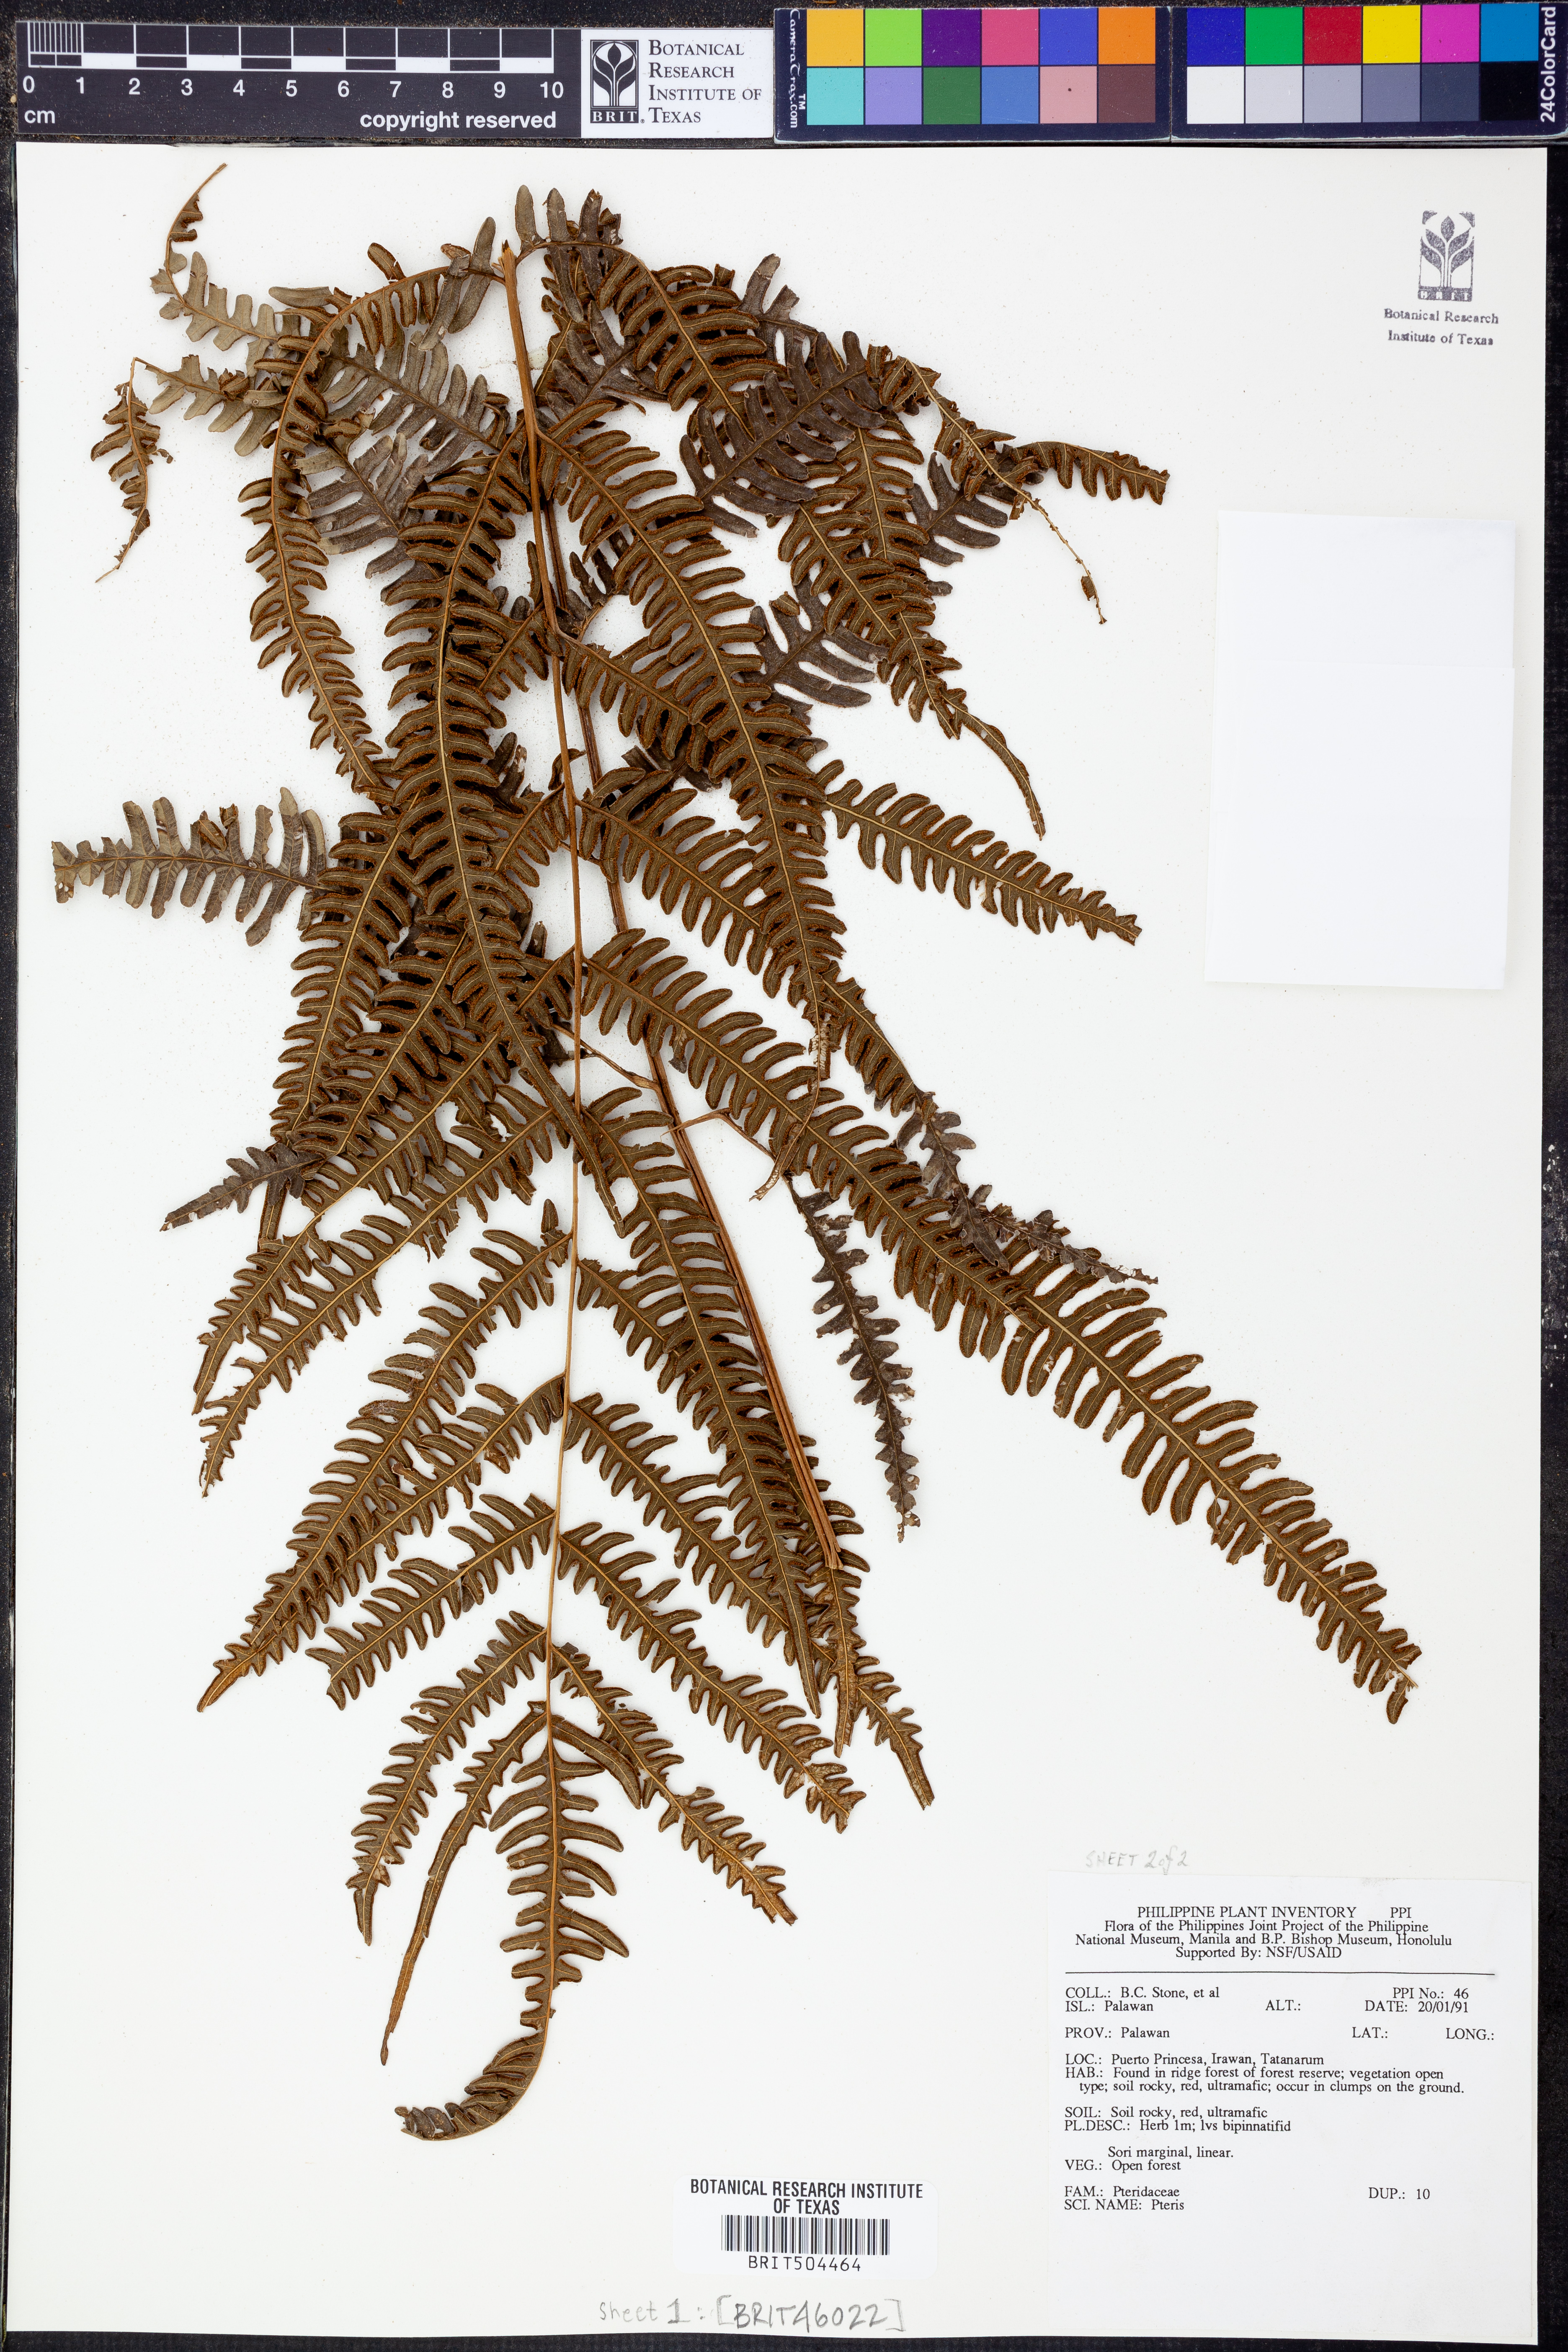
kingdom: Plantae
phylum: Tracheophyta
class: Polypodiopsida
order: Polypodiales
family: Pteridaceae
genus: Pteris
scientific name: Pteris
